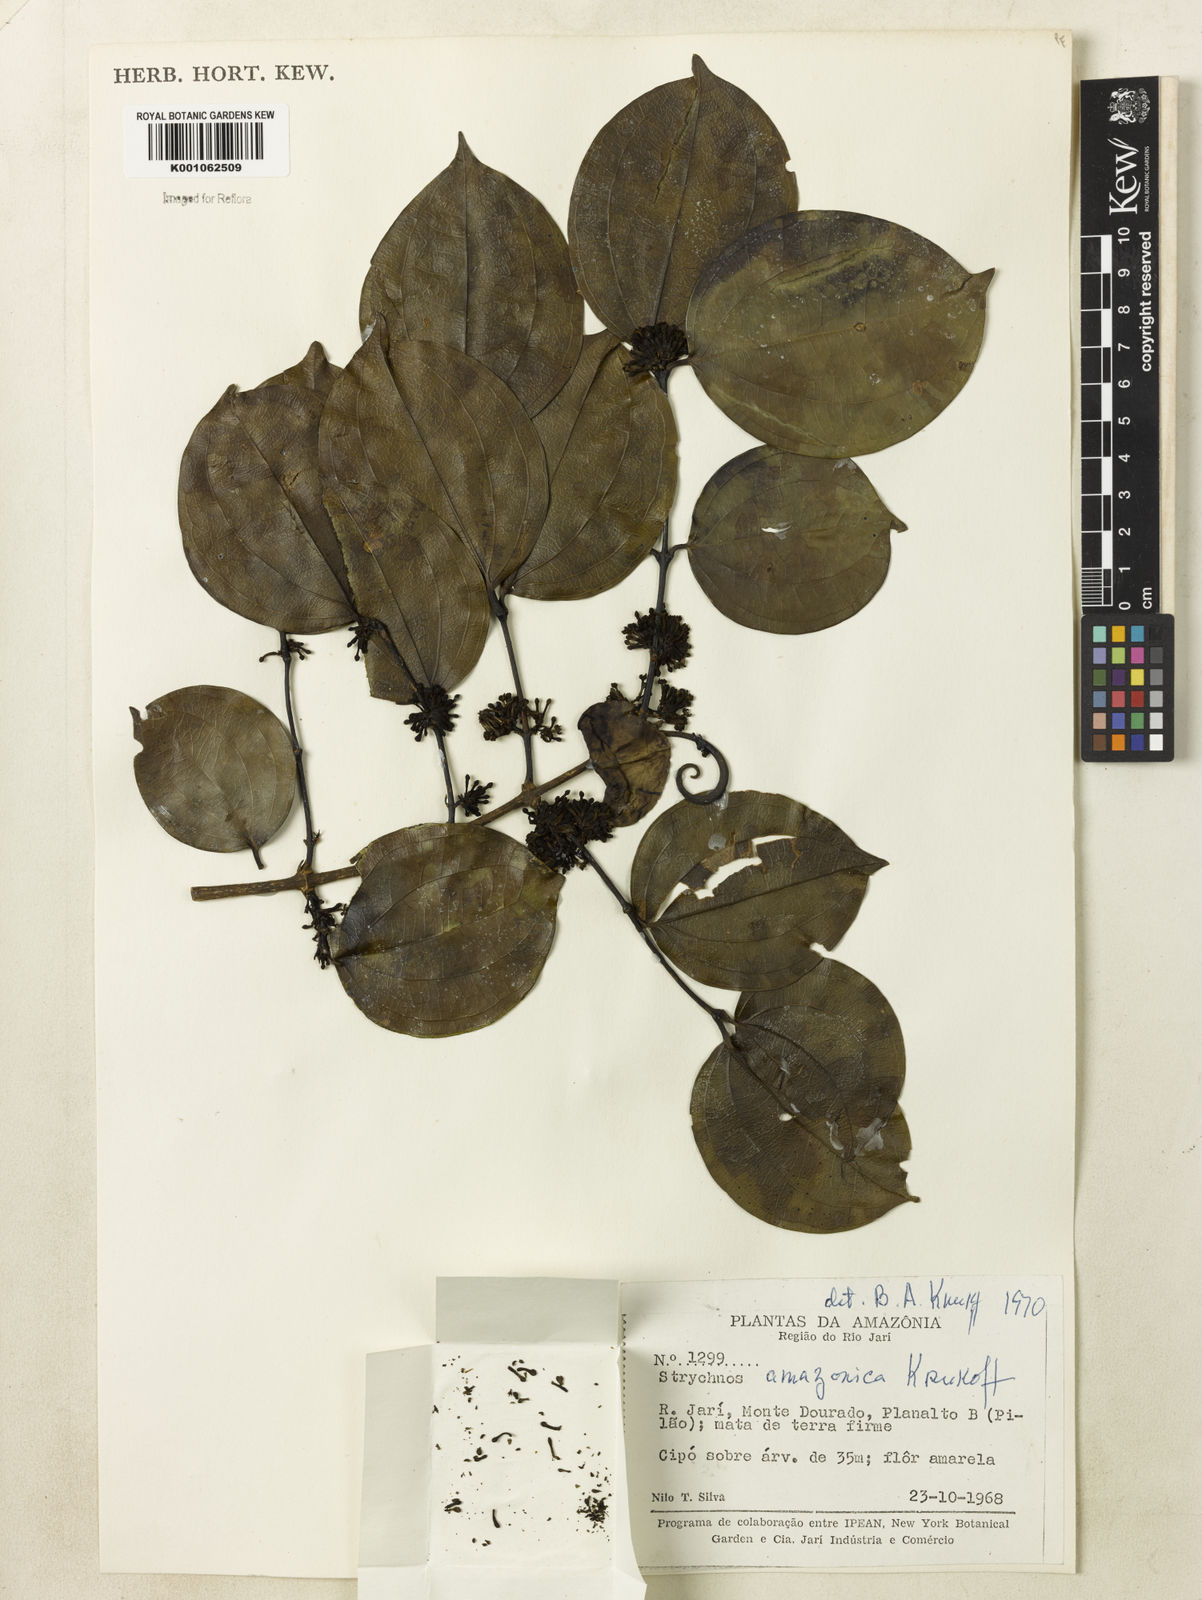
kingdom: Plantae
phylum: Tracheophyta
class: Magnoliopsida
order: Gentianales
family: Loganiaceae
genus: Strychnos
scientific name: Strychnos amazonica
